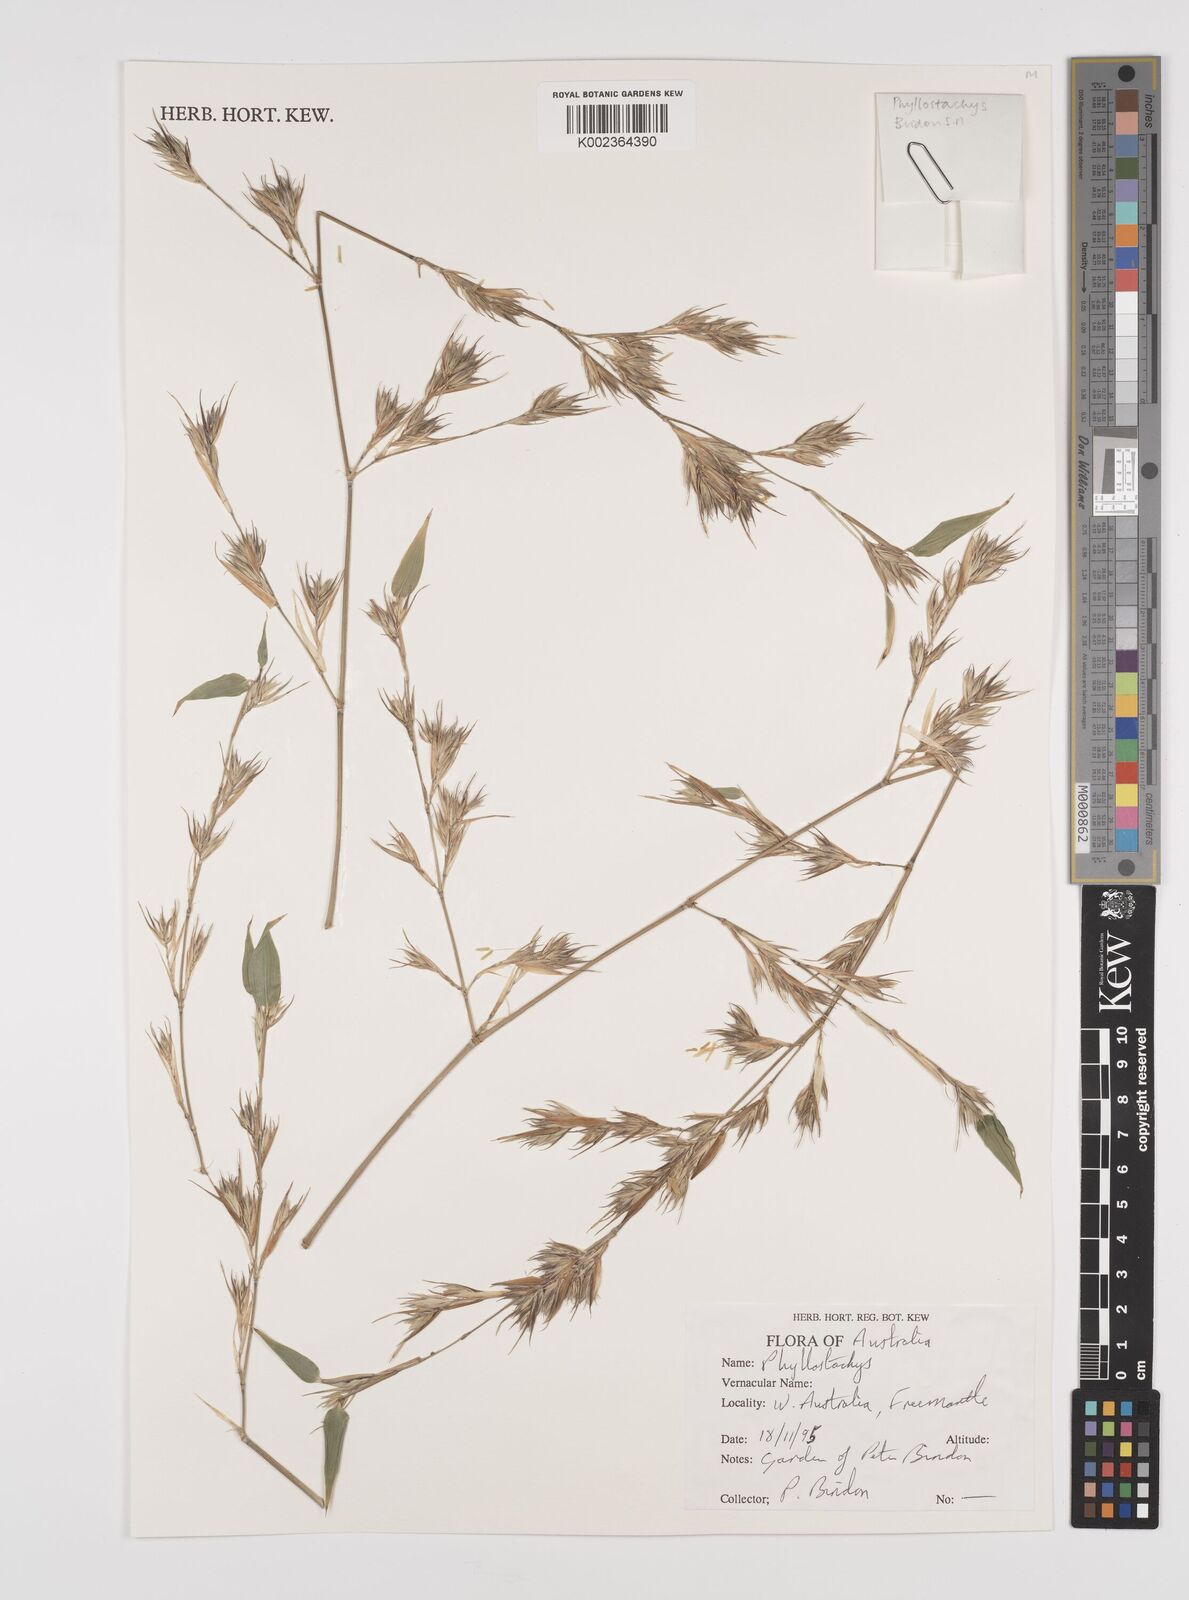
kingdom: Plantae
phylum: Tracheophyta
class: Liliopsida
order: Poales
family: Poaceae
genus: Phyllostachys
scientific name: Phyllostachys aurea
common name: Golden bamboo
